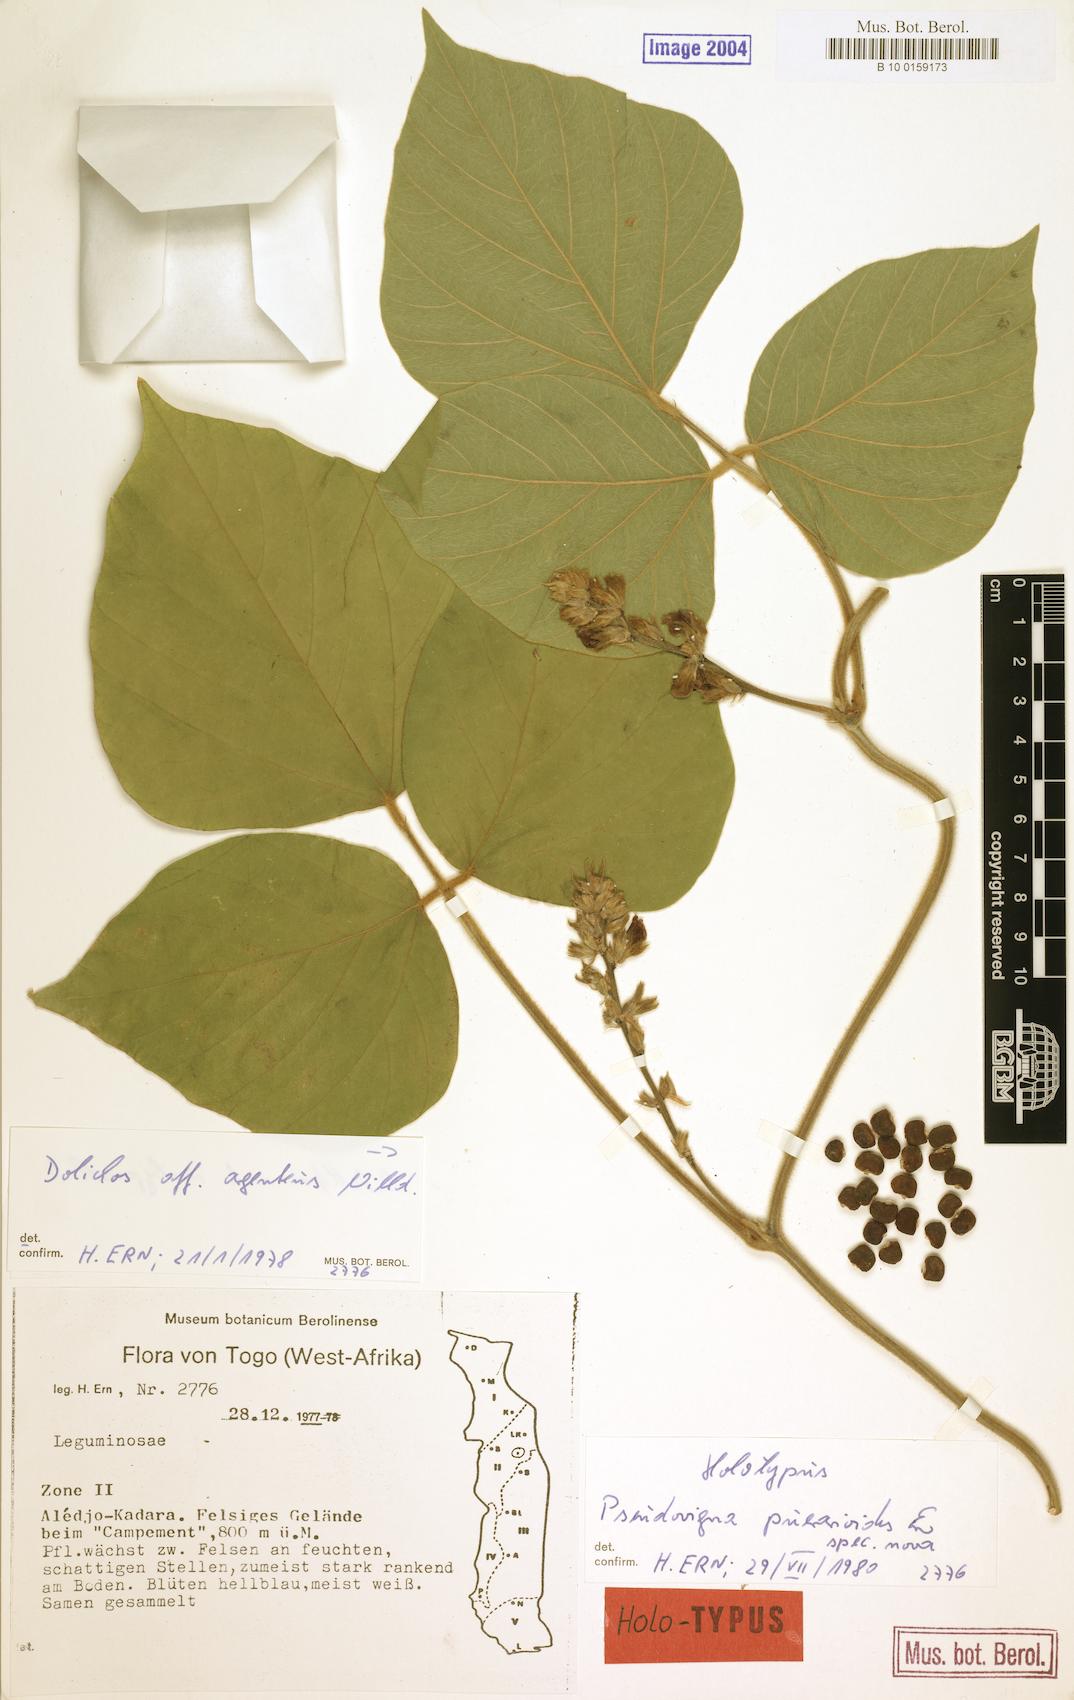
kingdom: Plantae
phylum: Tracheophyta
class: Magnoliopsida
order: Fabales
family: Fabaceae
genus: Pseudovigna
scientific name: Pseudovigna puerarioides
